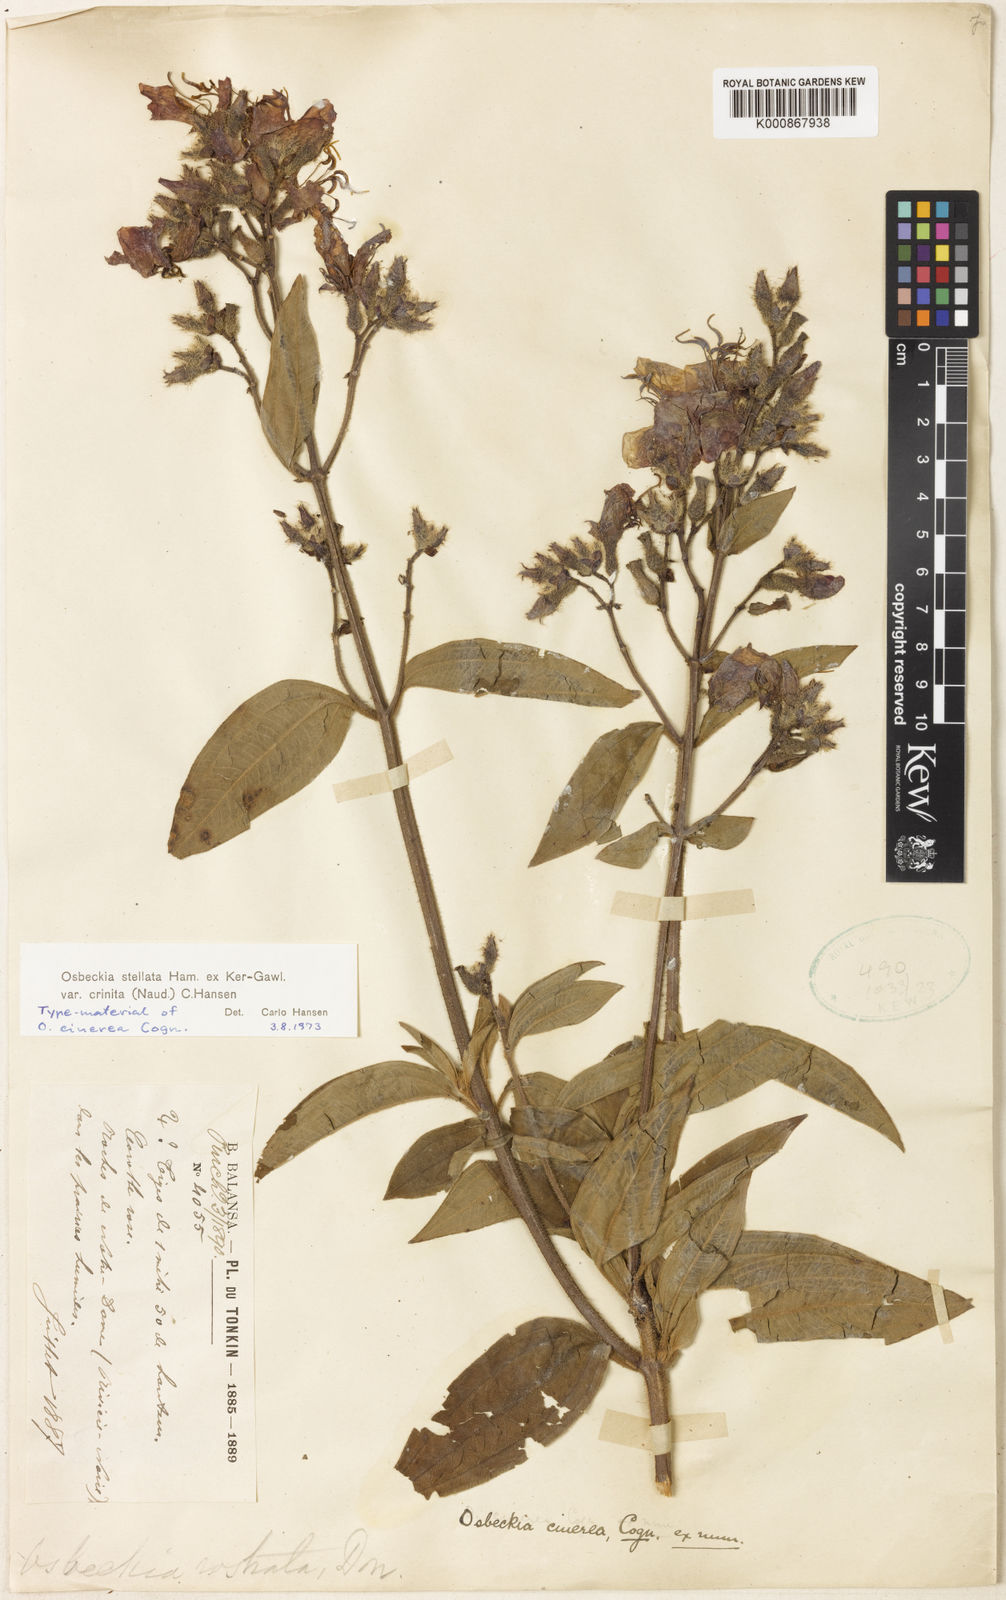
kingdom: Plantae
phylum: Tracheophyta
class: Magnoliopsida
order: Myrtales
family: Melastomataceae
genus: Osbeckia
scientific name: Osbeckia crinita
